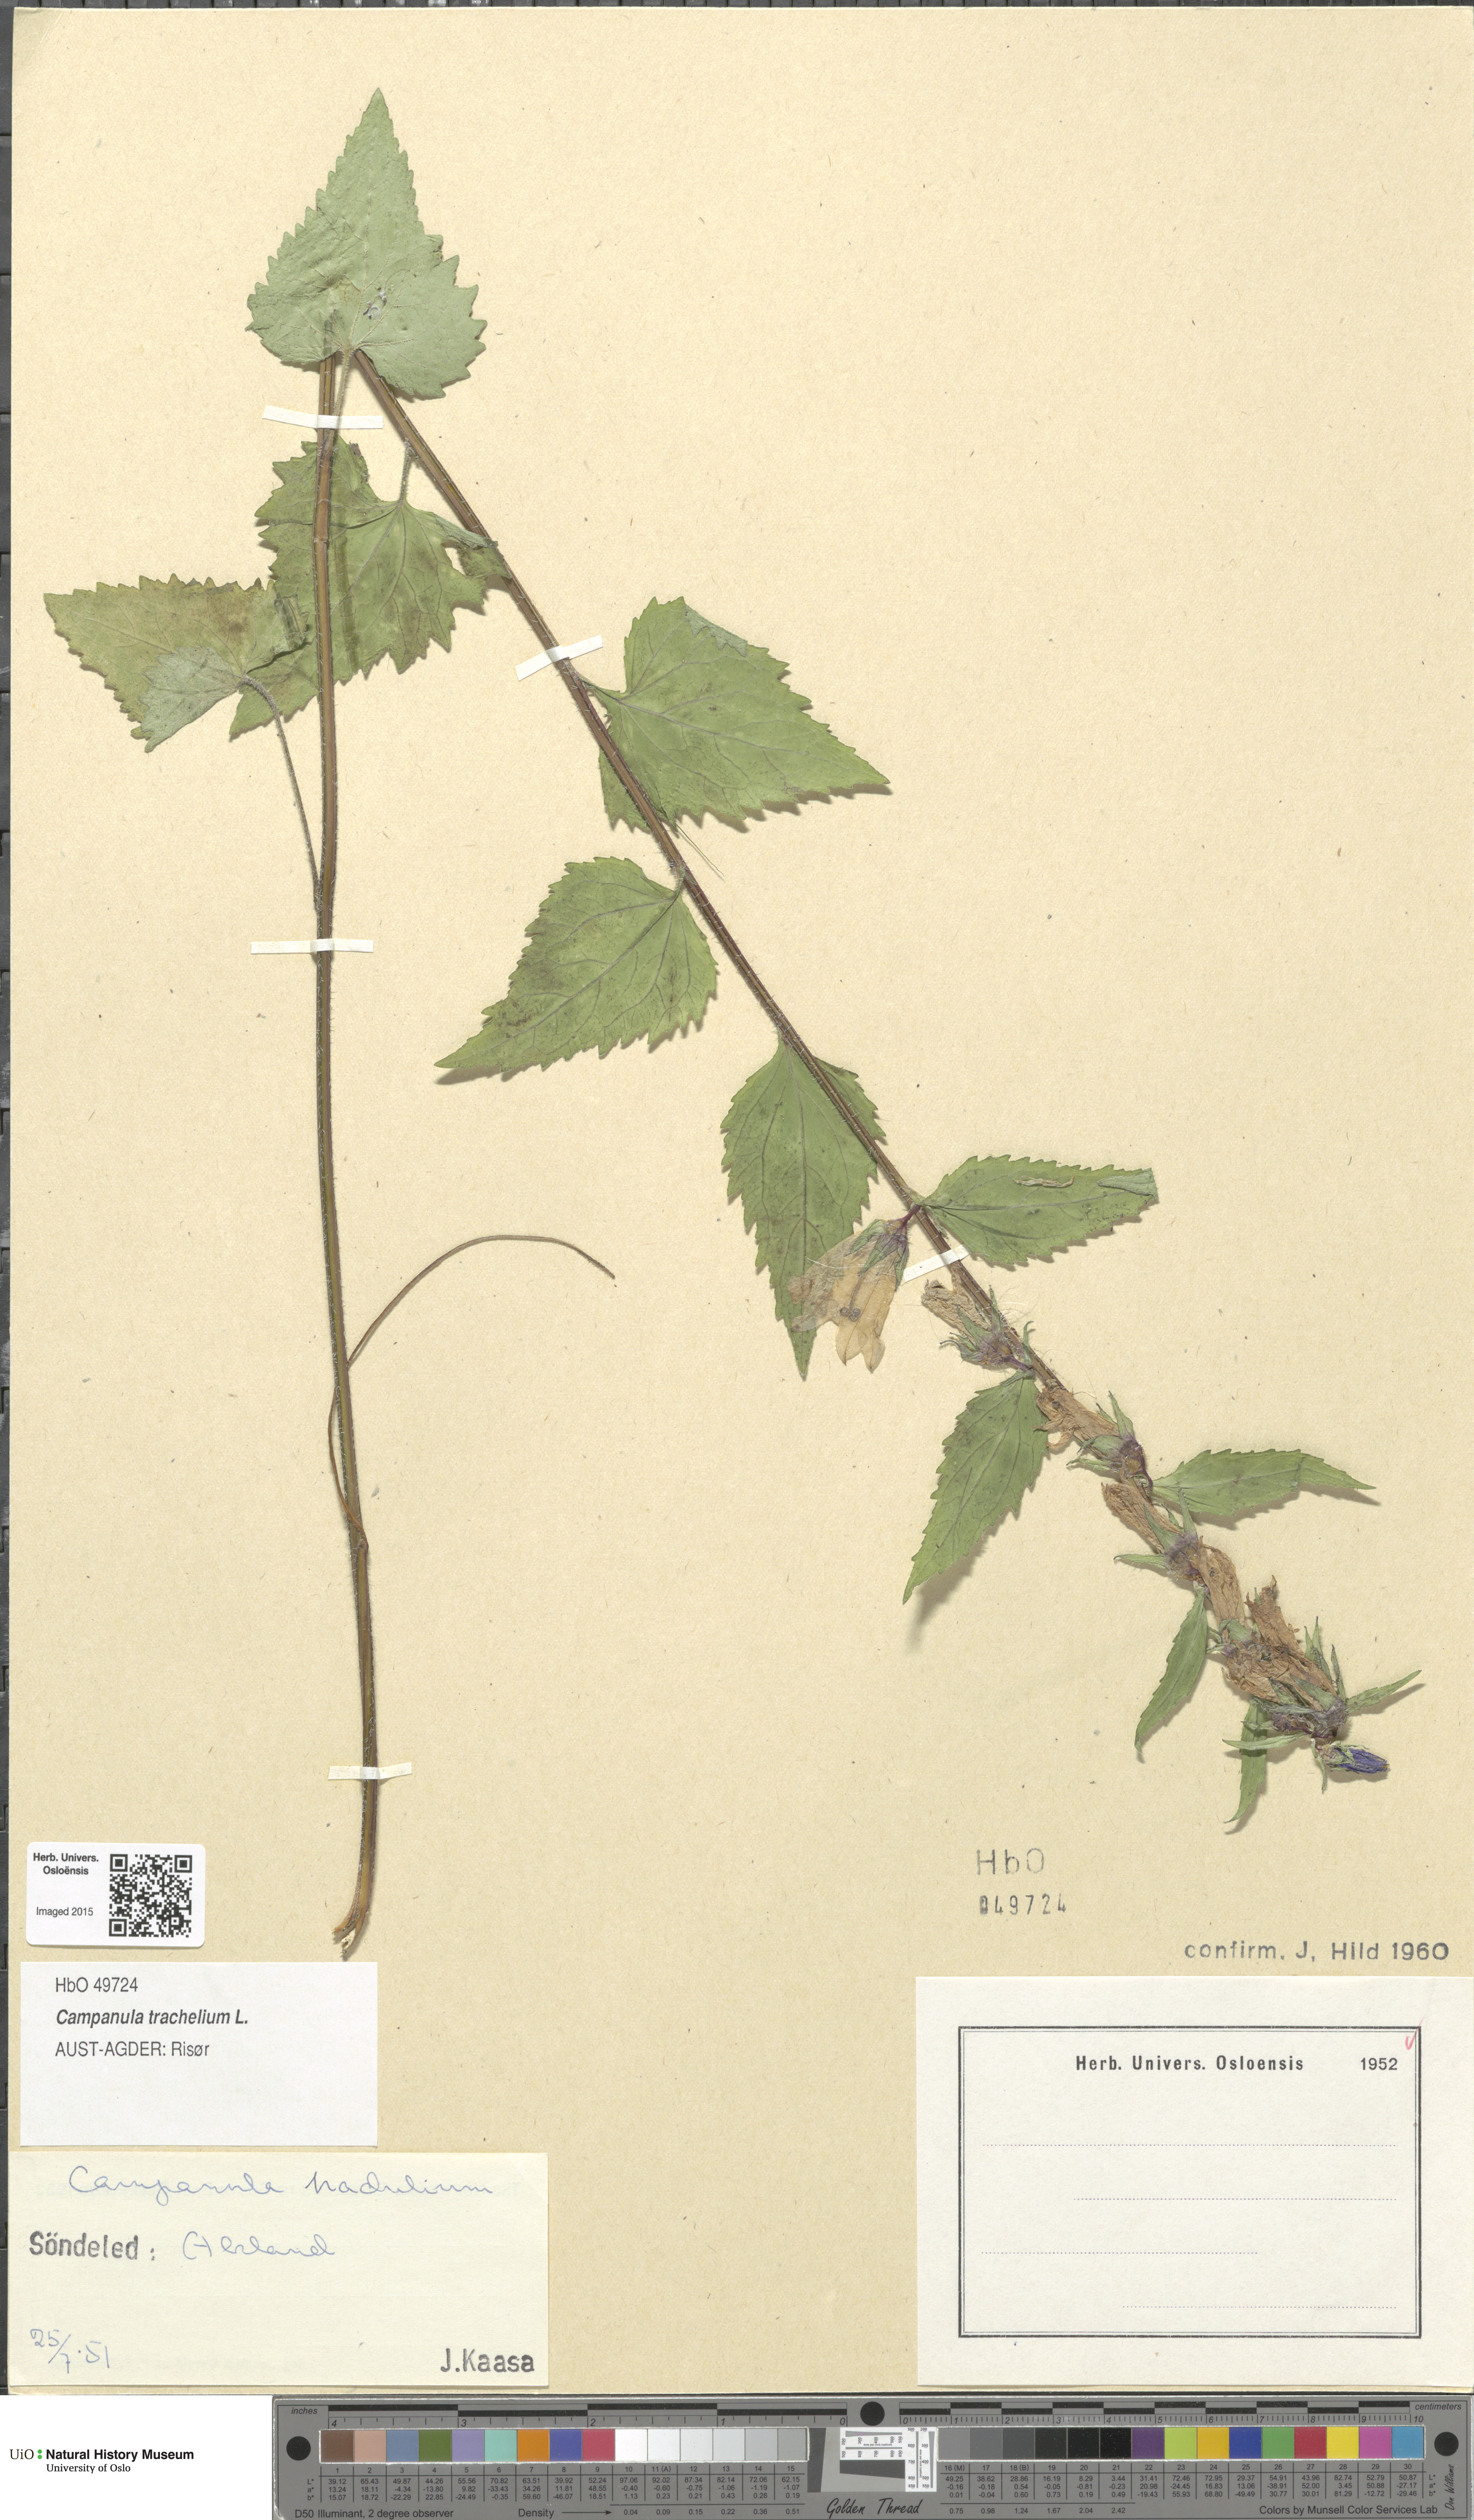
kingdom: Plantae
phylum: Tracheophyta
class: Magnoliopsida
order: Asterales
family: Campanulaceae
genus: Campanula
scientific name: Campanula trachelium
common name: Nettle-leaved bellflower
